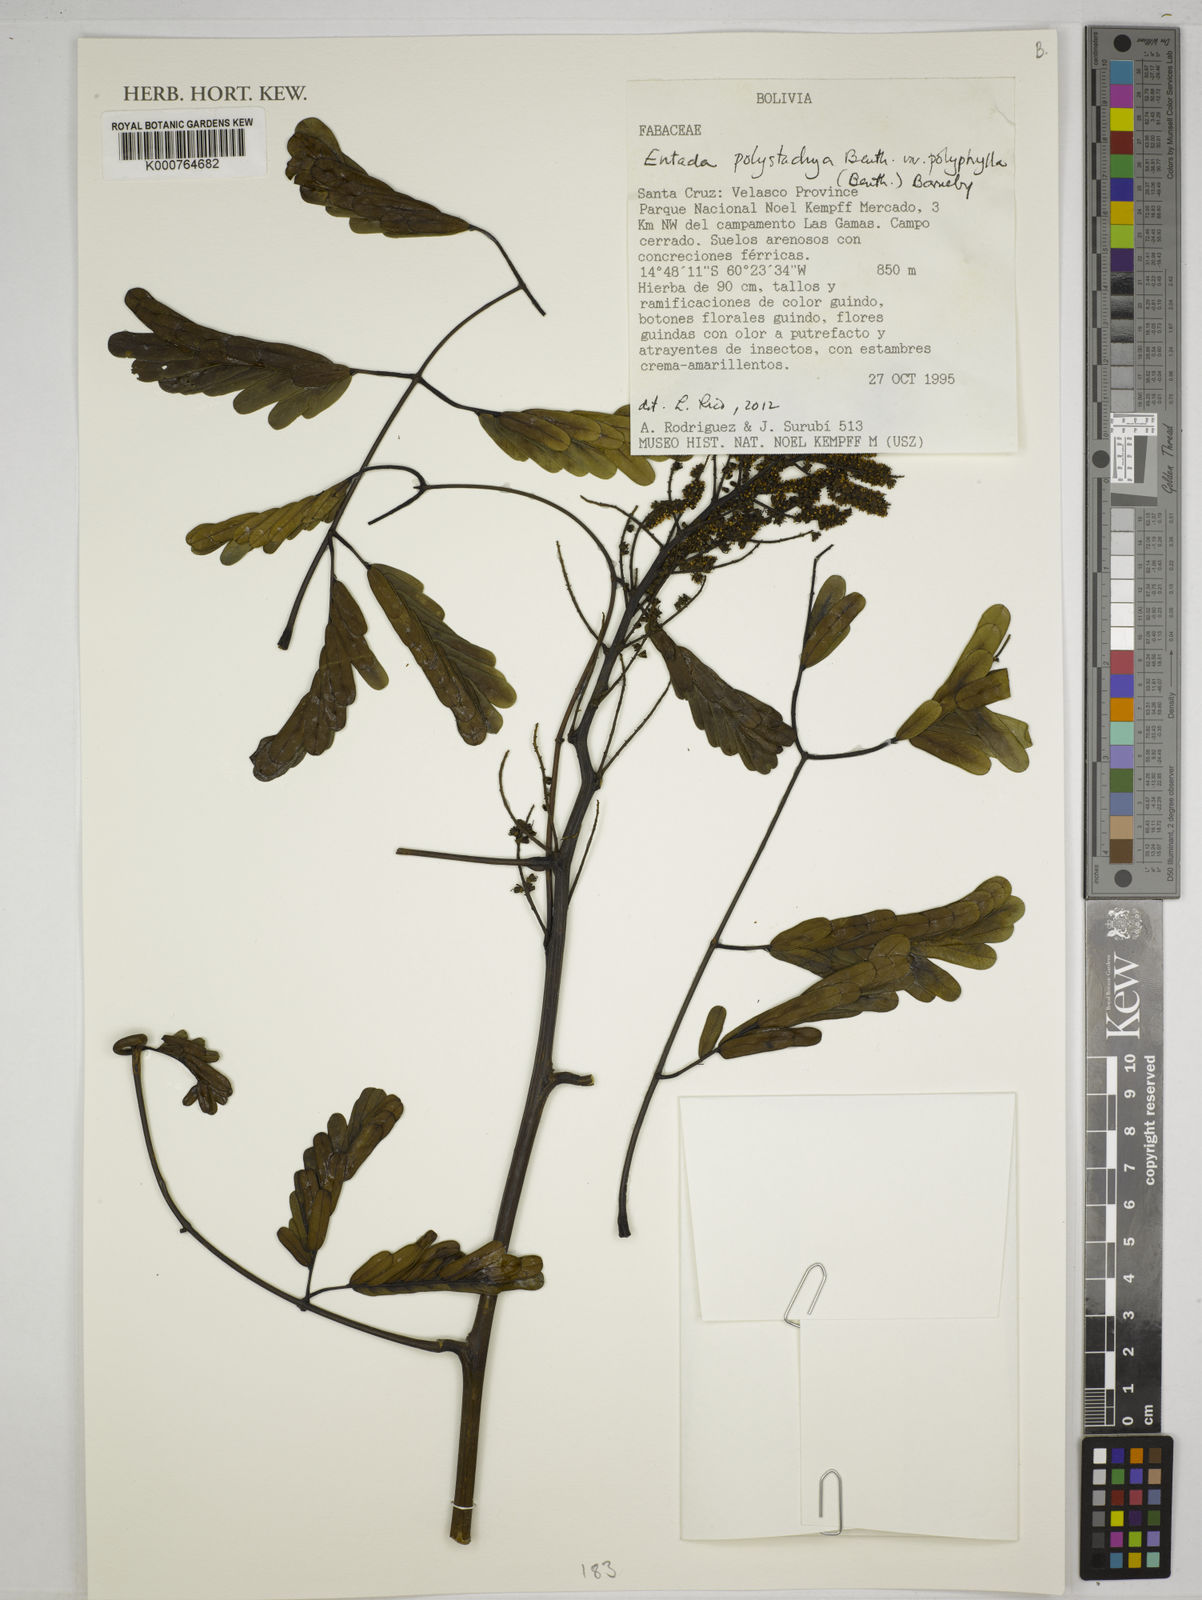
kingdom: Plantae
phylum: Tracheophyta
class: Magnoliopsida
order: Fabales
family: Fabaceae
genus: Entada
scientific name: Entada polyphylla
